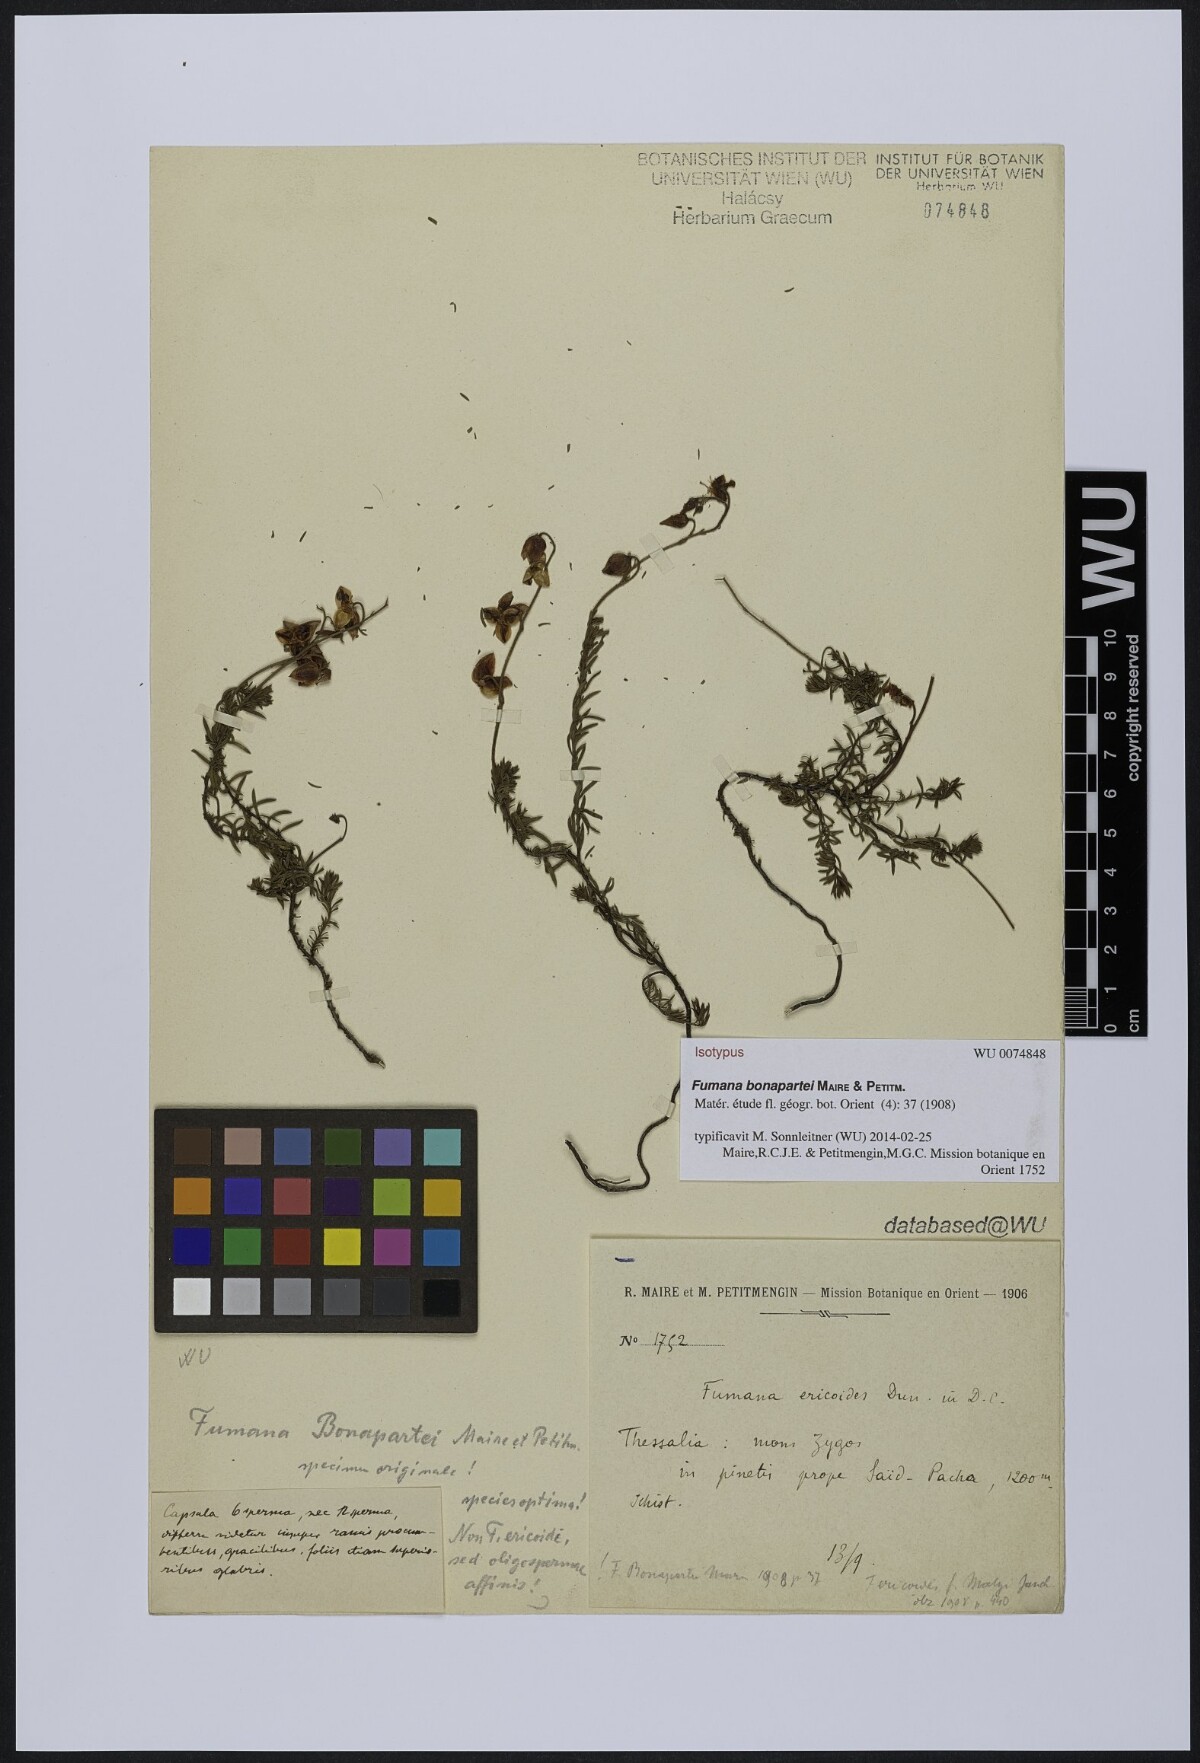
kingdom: Plantae
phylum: Tracheophyta
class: Magnoliopsida
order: Malvales
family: Cistaceae
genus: Fumana
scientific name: Fumana bonapartei
